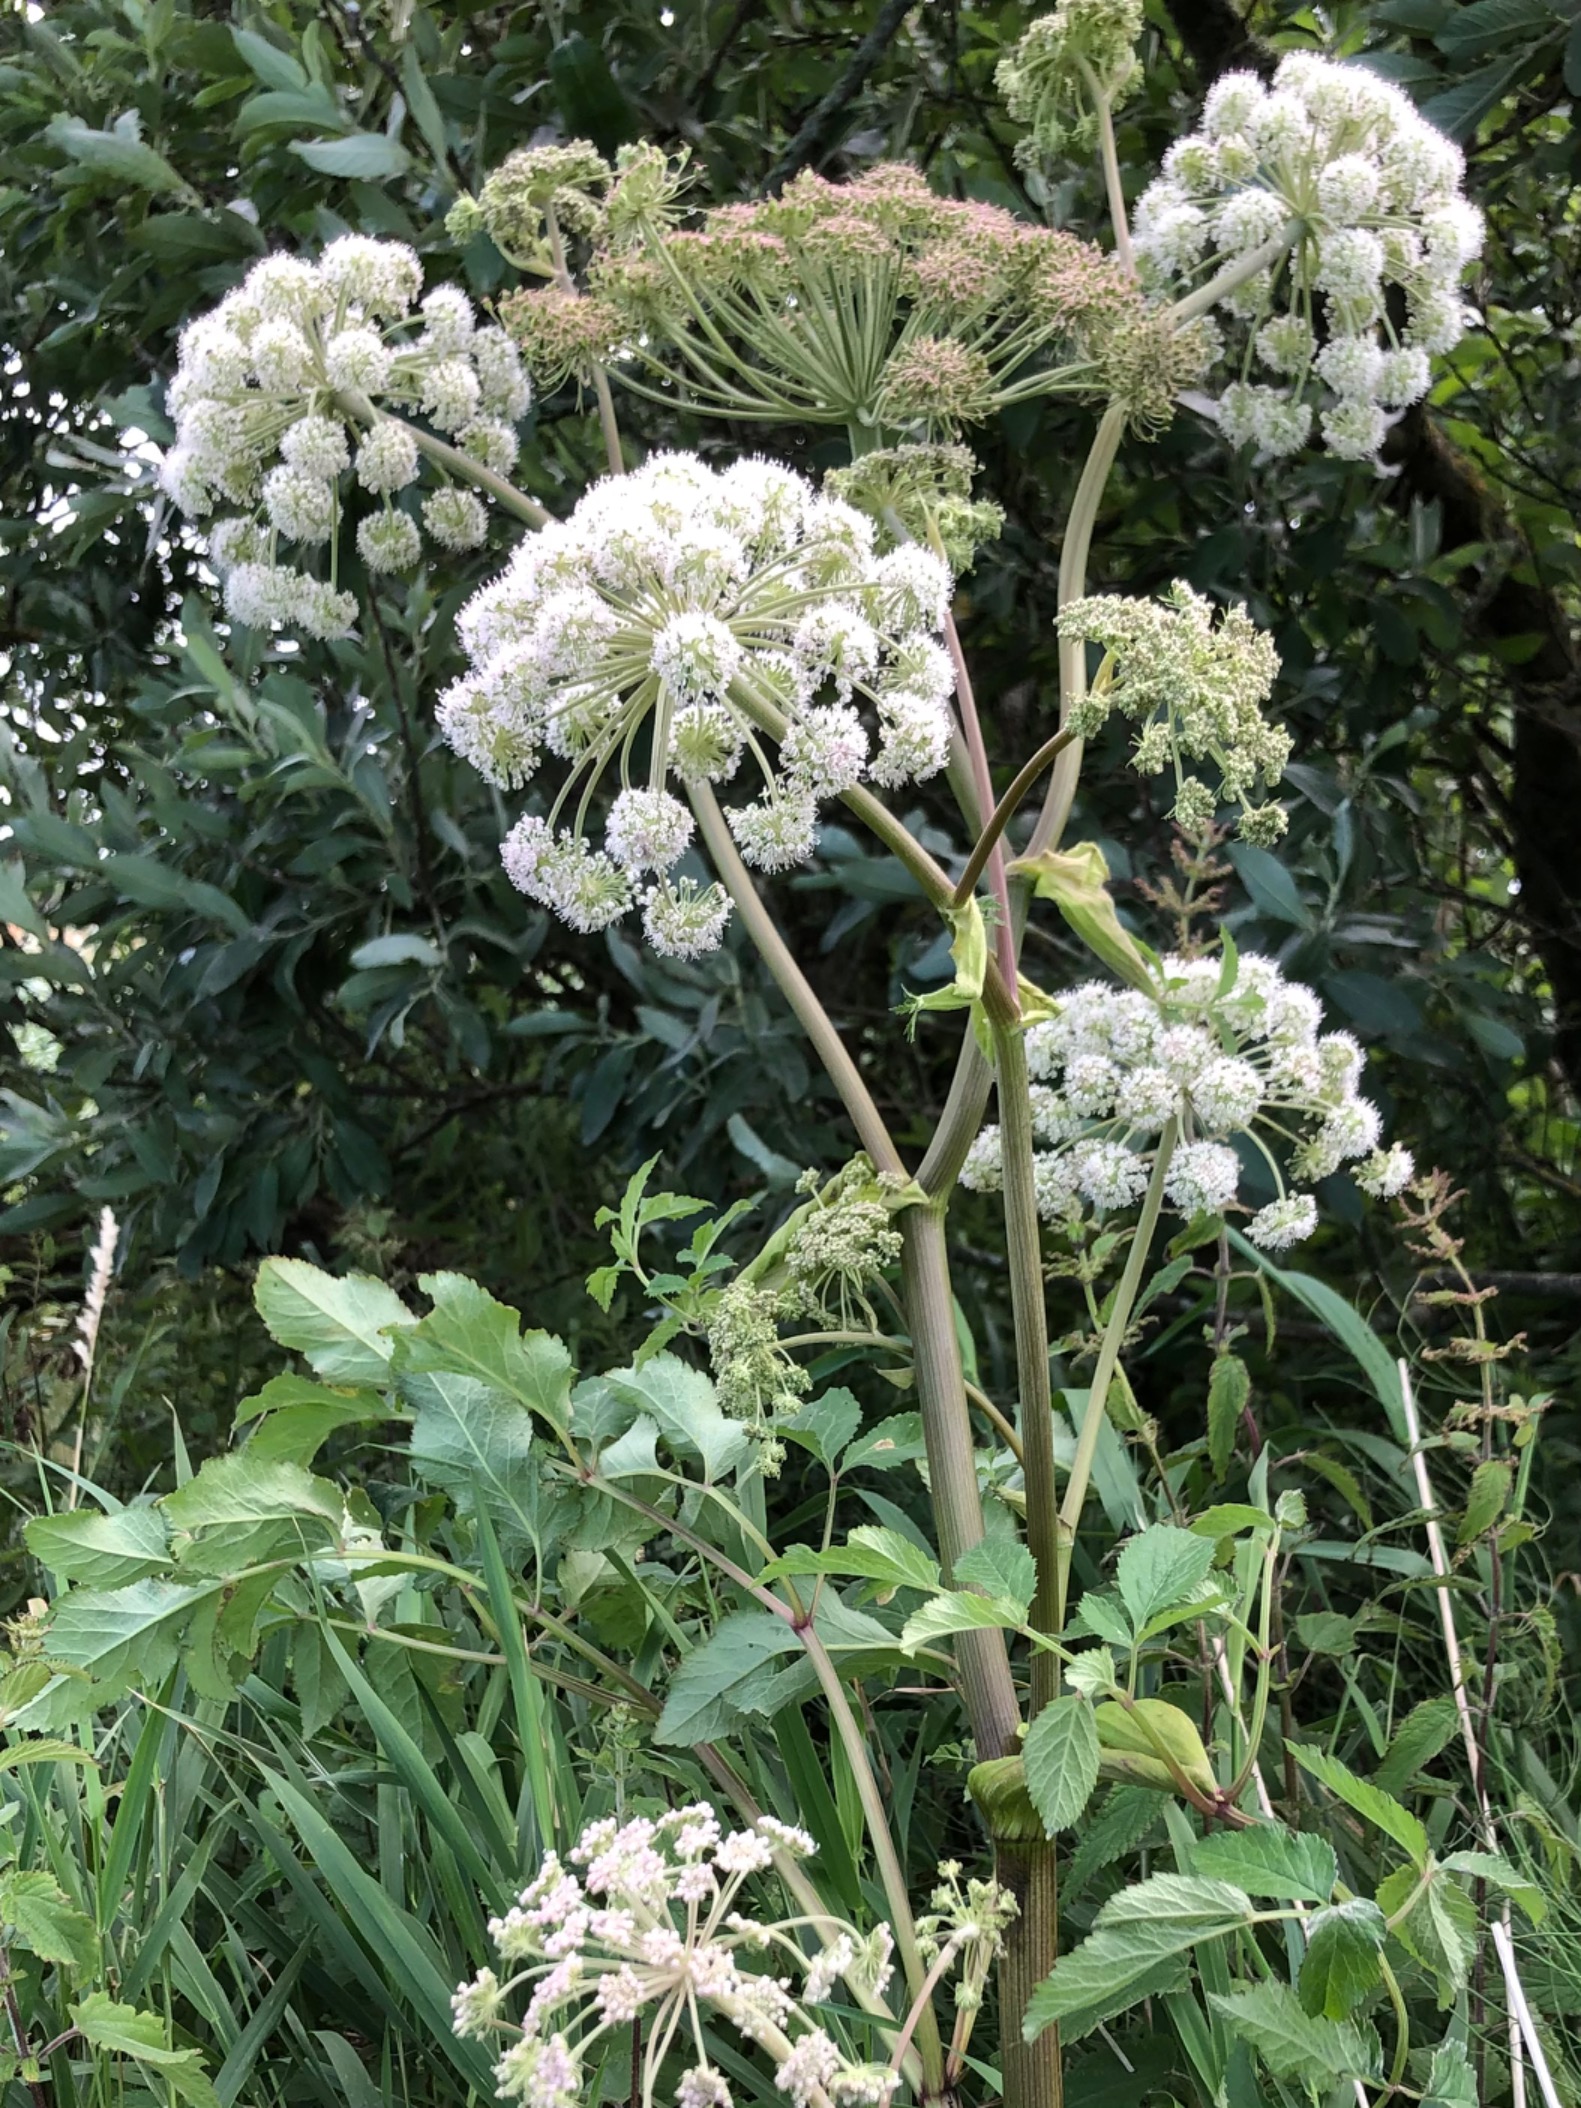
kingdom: Plantae
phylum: Tracheophyta
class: Magnoliopsida
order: Apiales
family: Apiaceae
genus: Angelica
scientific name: Angelica sylvestris
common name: Angelik
